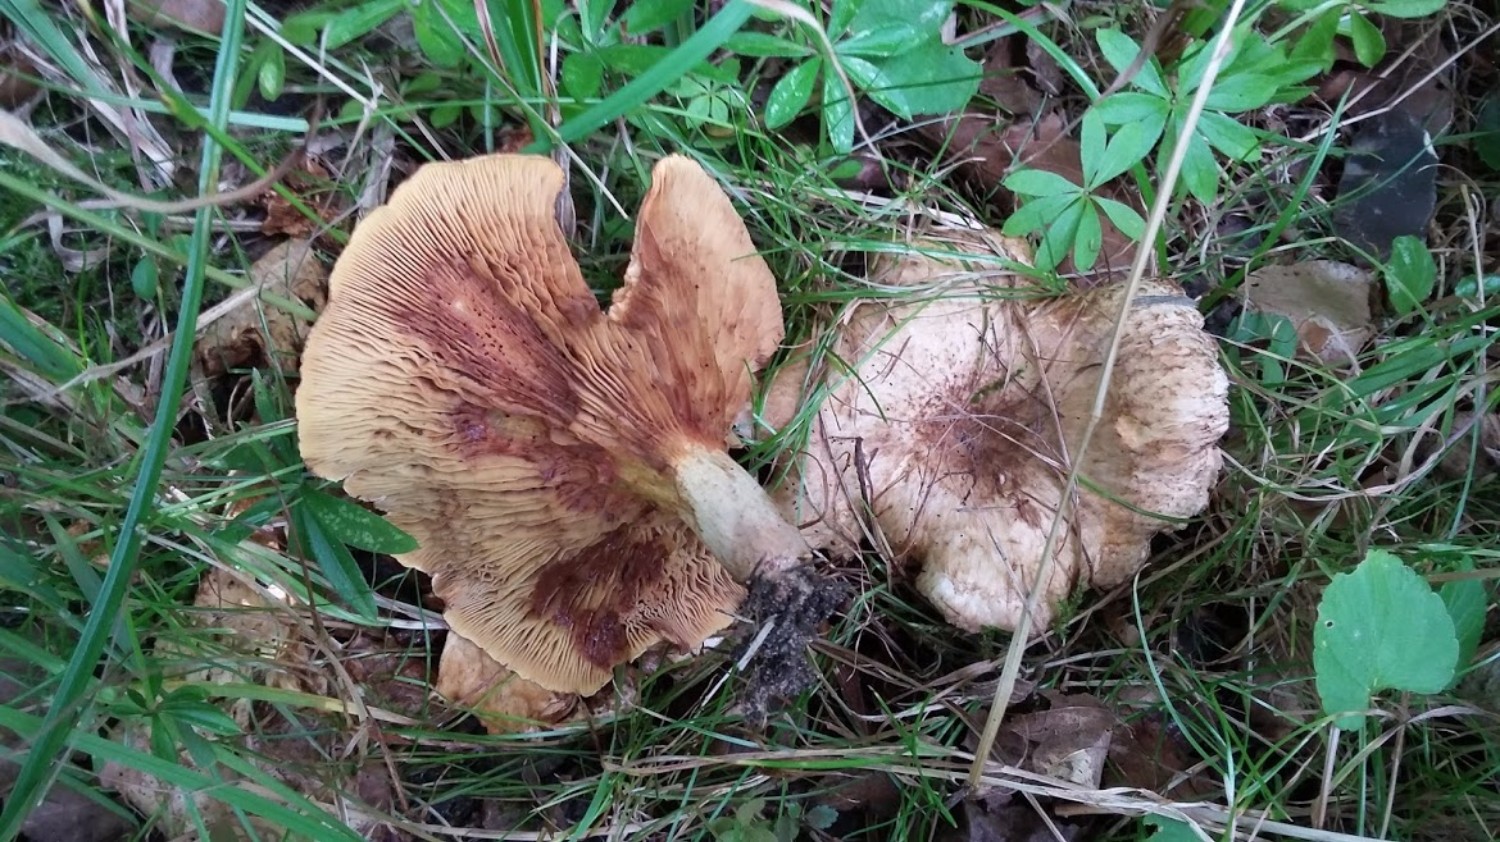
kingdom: Fungi
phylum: Basidiomycota
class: Agaricomycetes
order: Boletales
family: Paxillaceae
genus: Paxillus
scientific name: Paxillus rubicundulus
